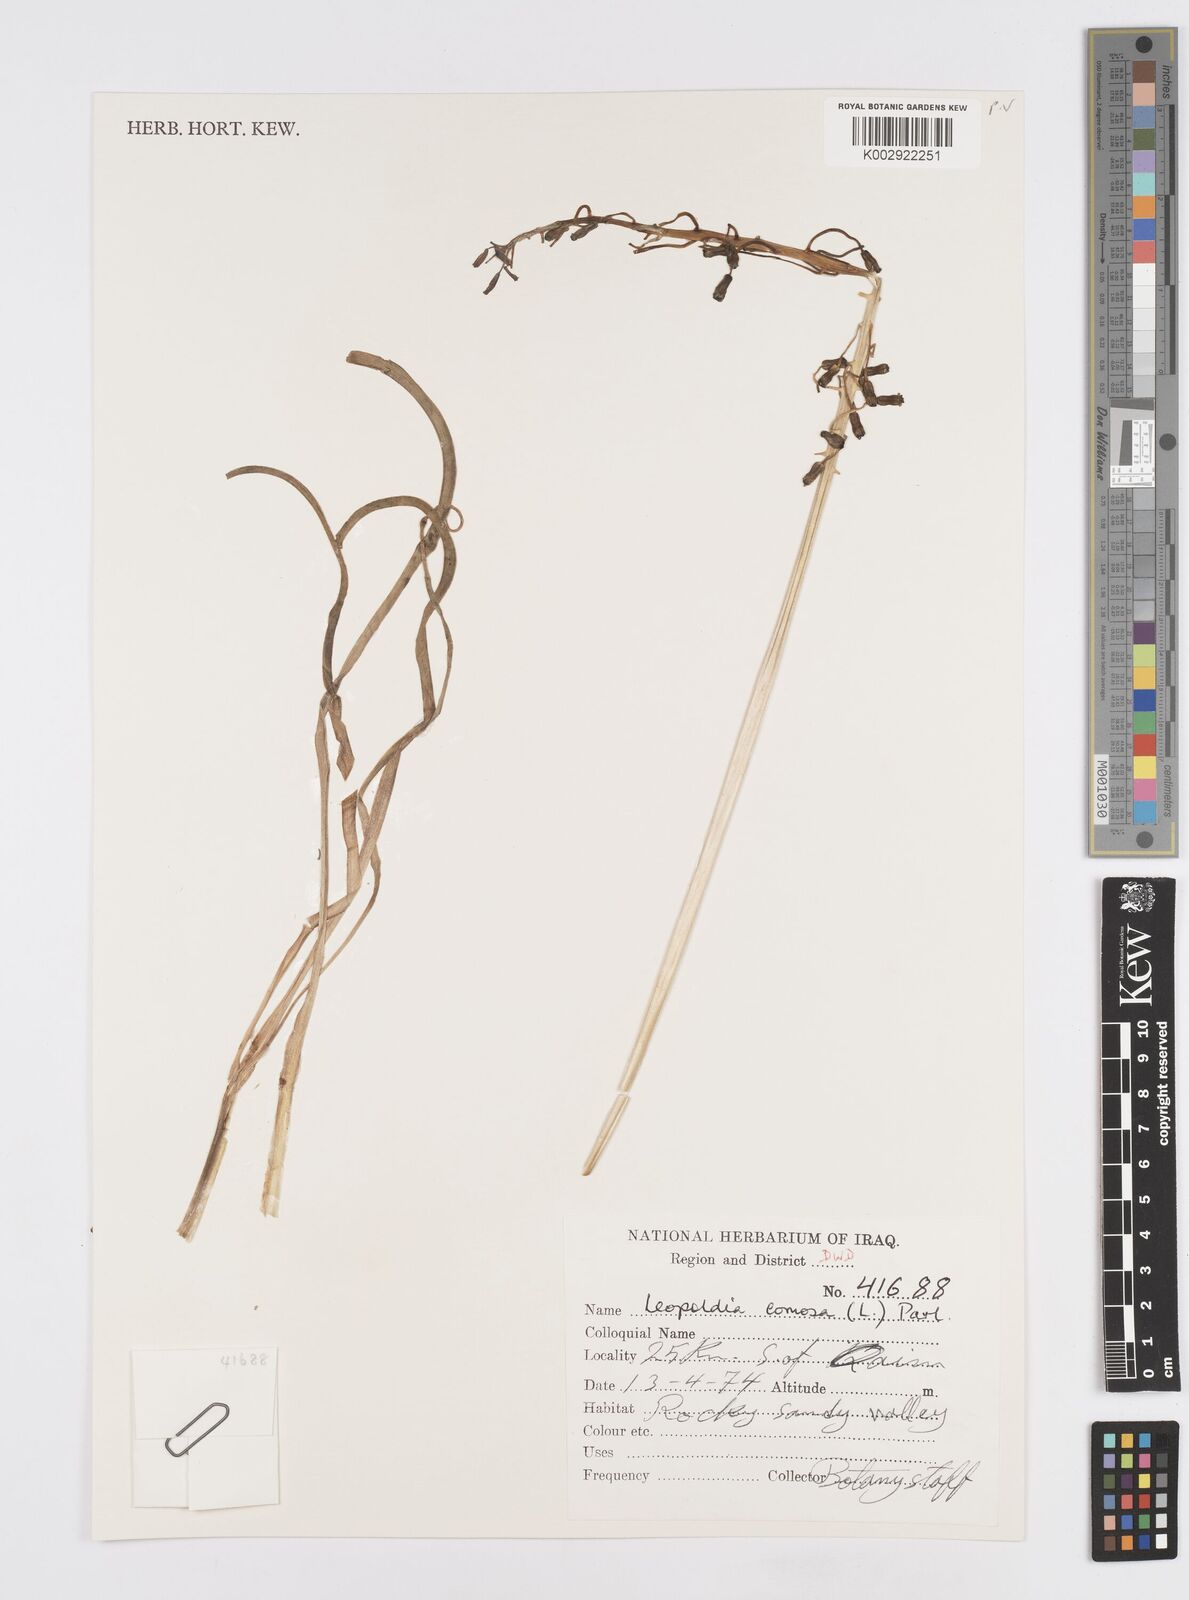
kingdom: Plantae
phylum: Tracheophyta
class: Liliopsida
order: Asparagales
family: Asparagaceae
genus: Muscari
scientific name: Muscari comosum
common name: Tassel hyacinth
